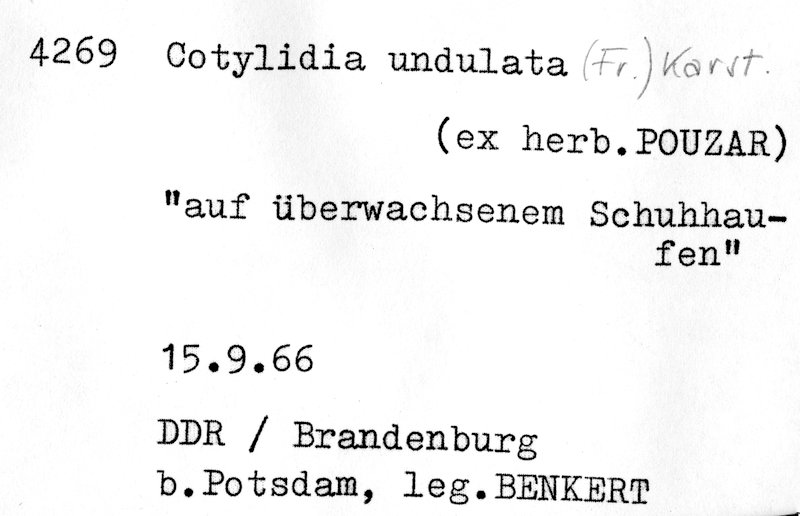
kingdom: Fungi
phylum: Basidiomycota
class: Agaricomycetes
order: Hymenochaetales
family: Rickenellaceae
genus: Cotylidia
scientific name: Cotylidia undulata
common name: Stalked rosette
